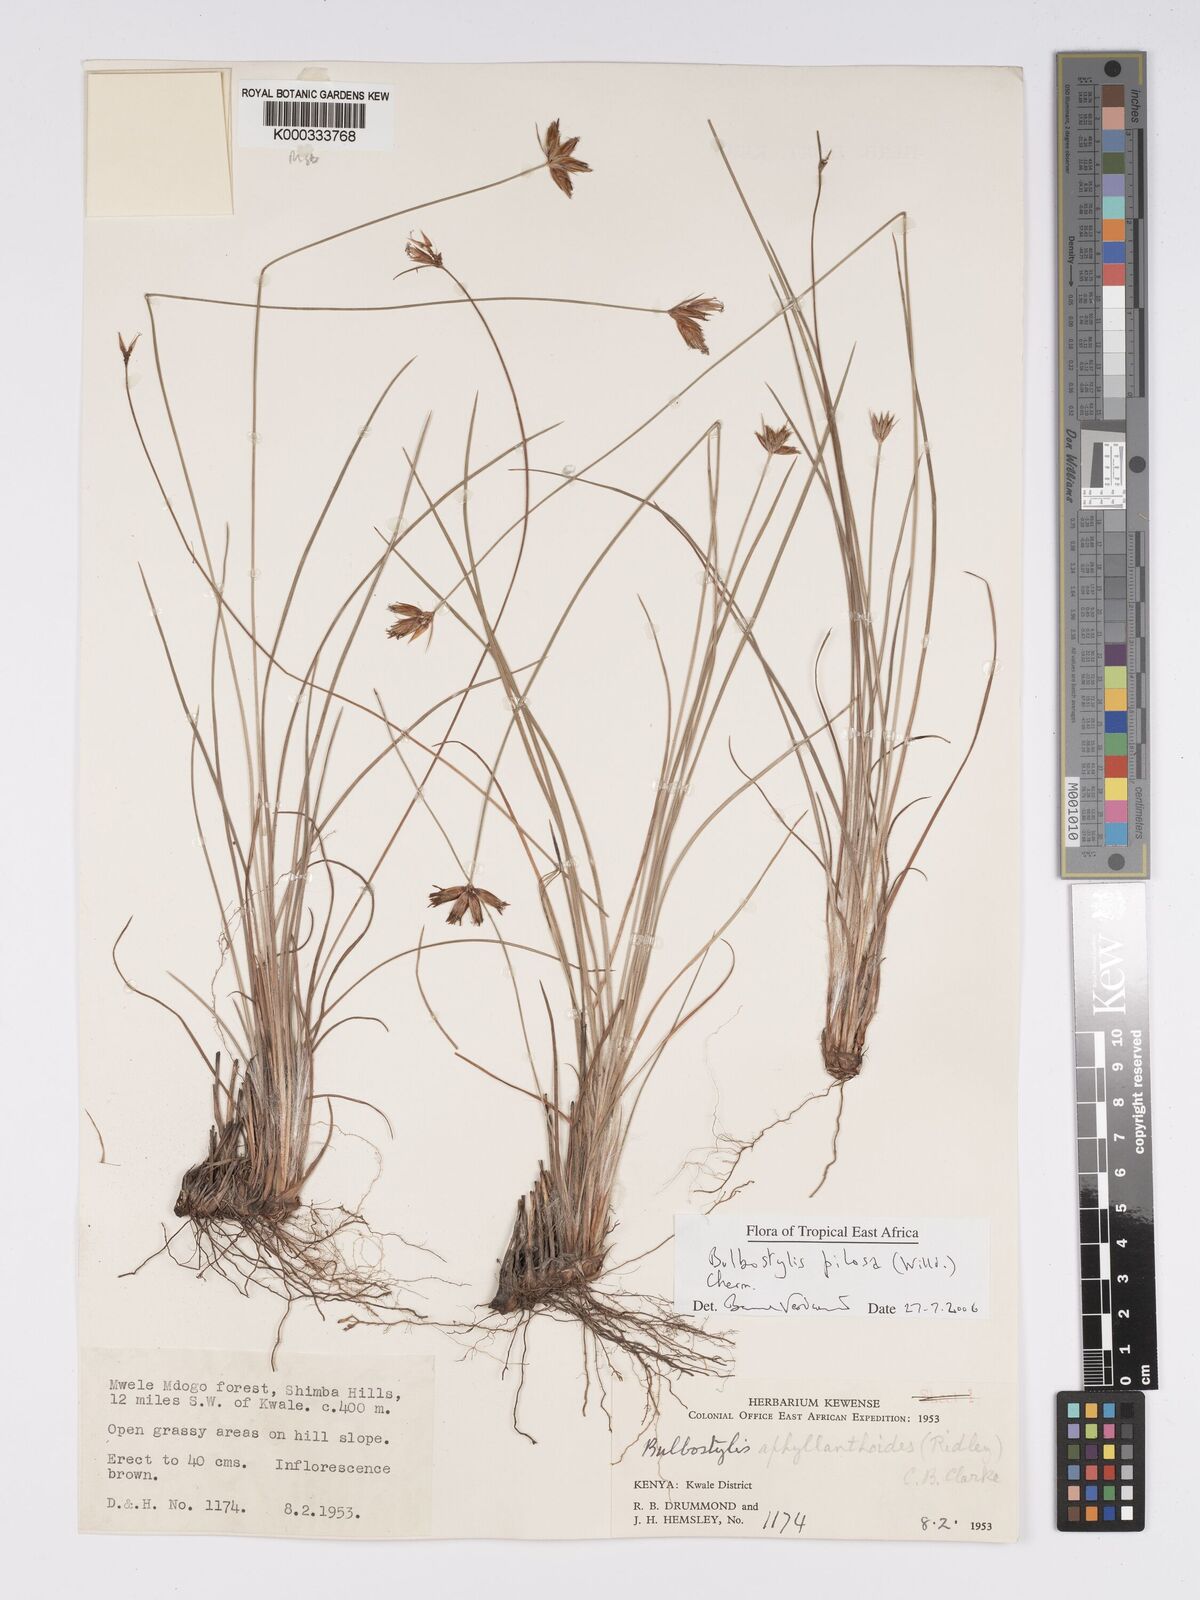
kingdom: Plantae
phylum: Tracheophyta
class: Liliopsida
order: Poales
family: Cyperaceae
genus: Bulbostylis
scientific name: Bulbostylis pilosa
